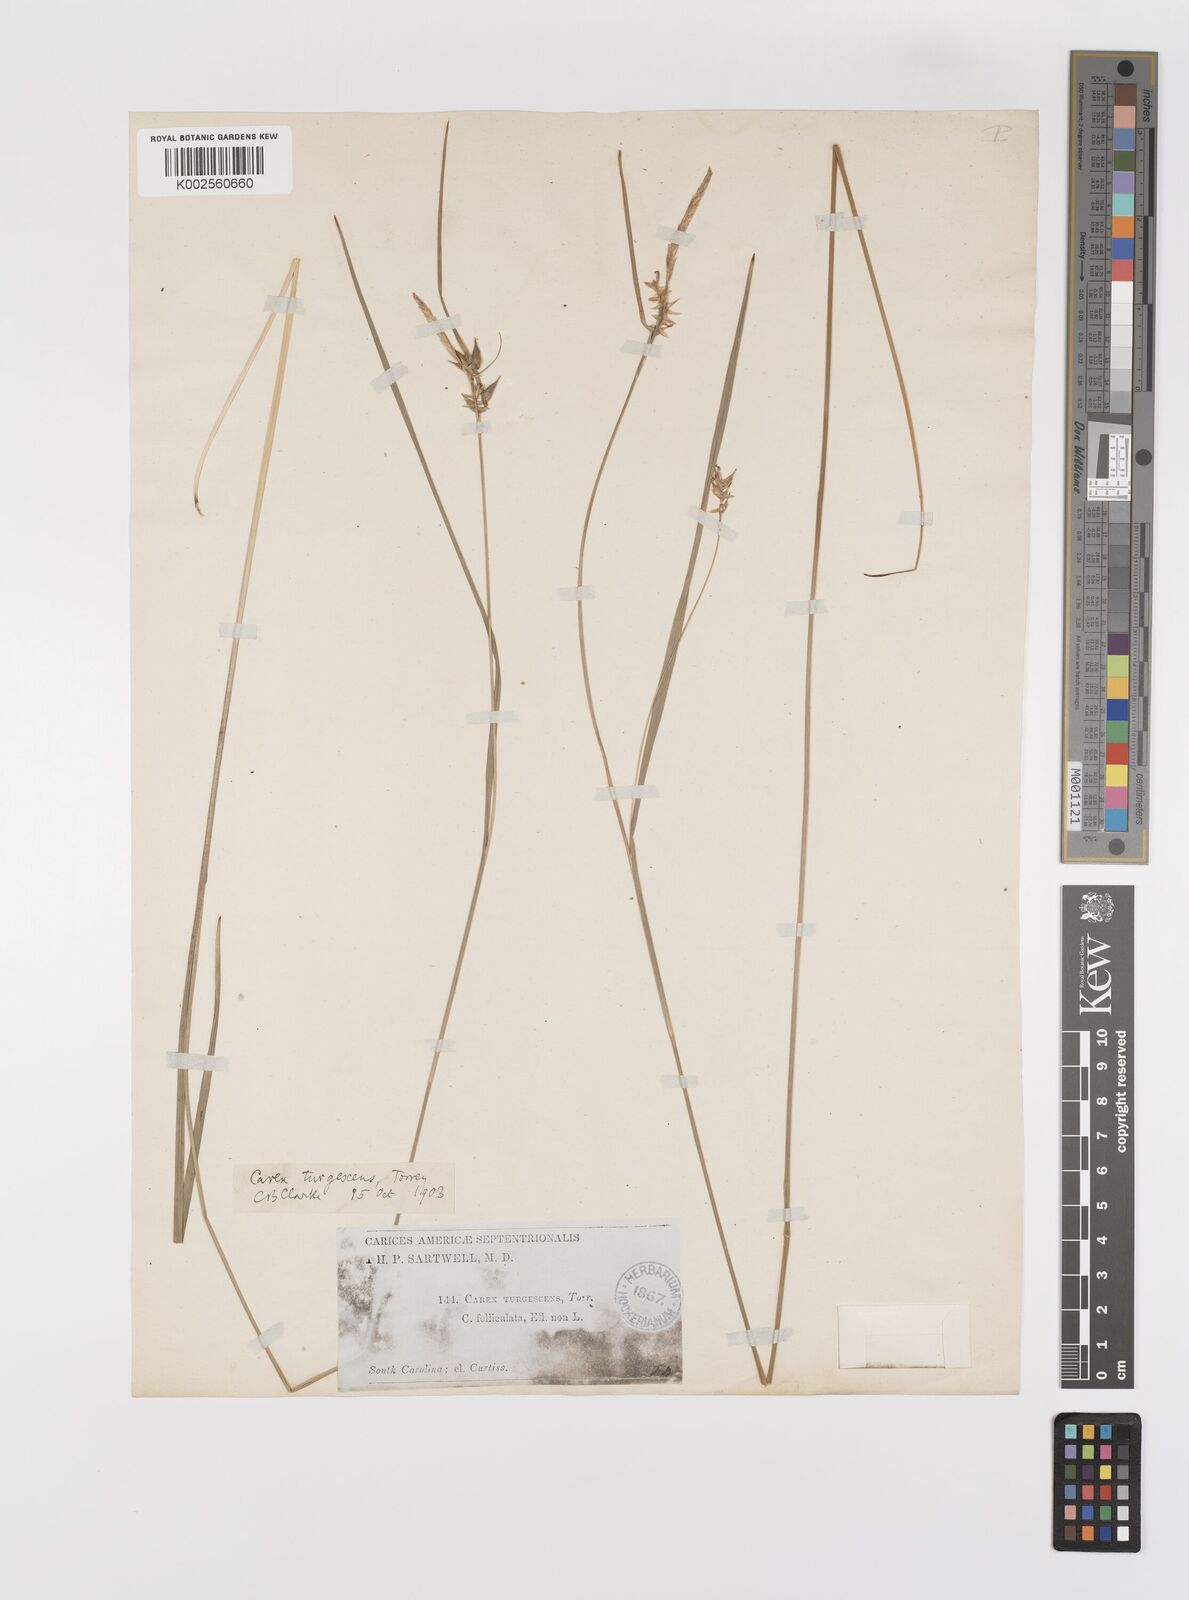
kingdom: Plantae
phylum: Tracheophyta
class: Liliopsida
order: Poales
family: Cyperaceae
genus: Carex
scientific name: Carex turgescens
